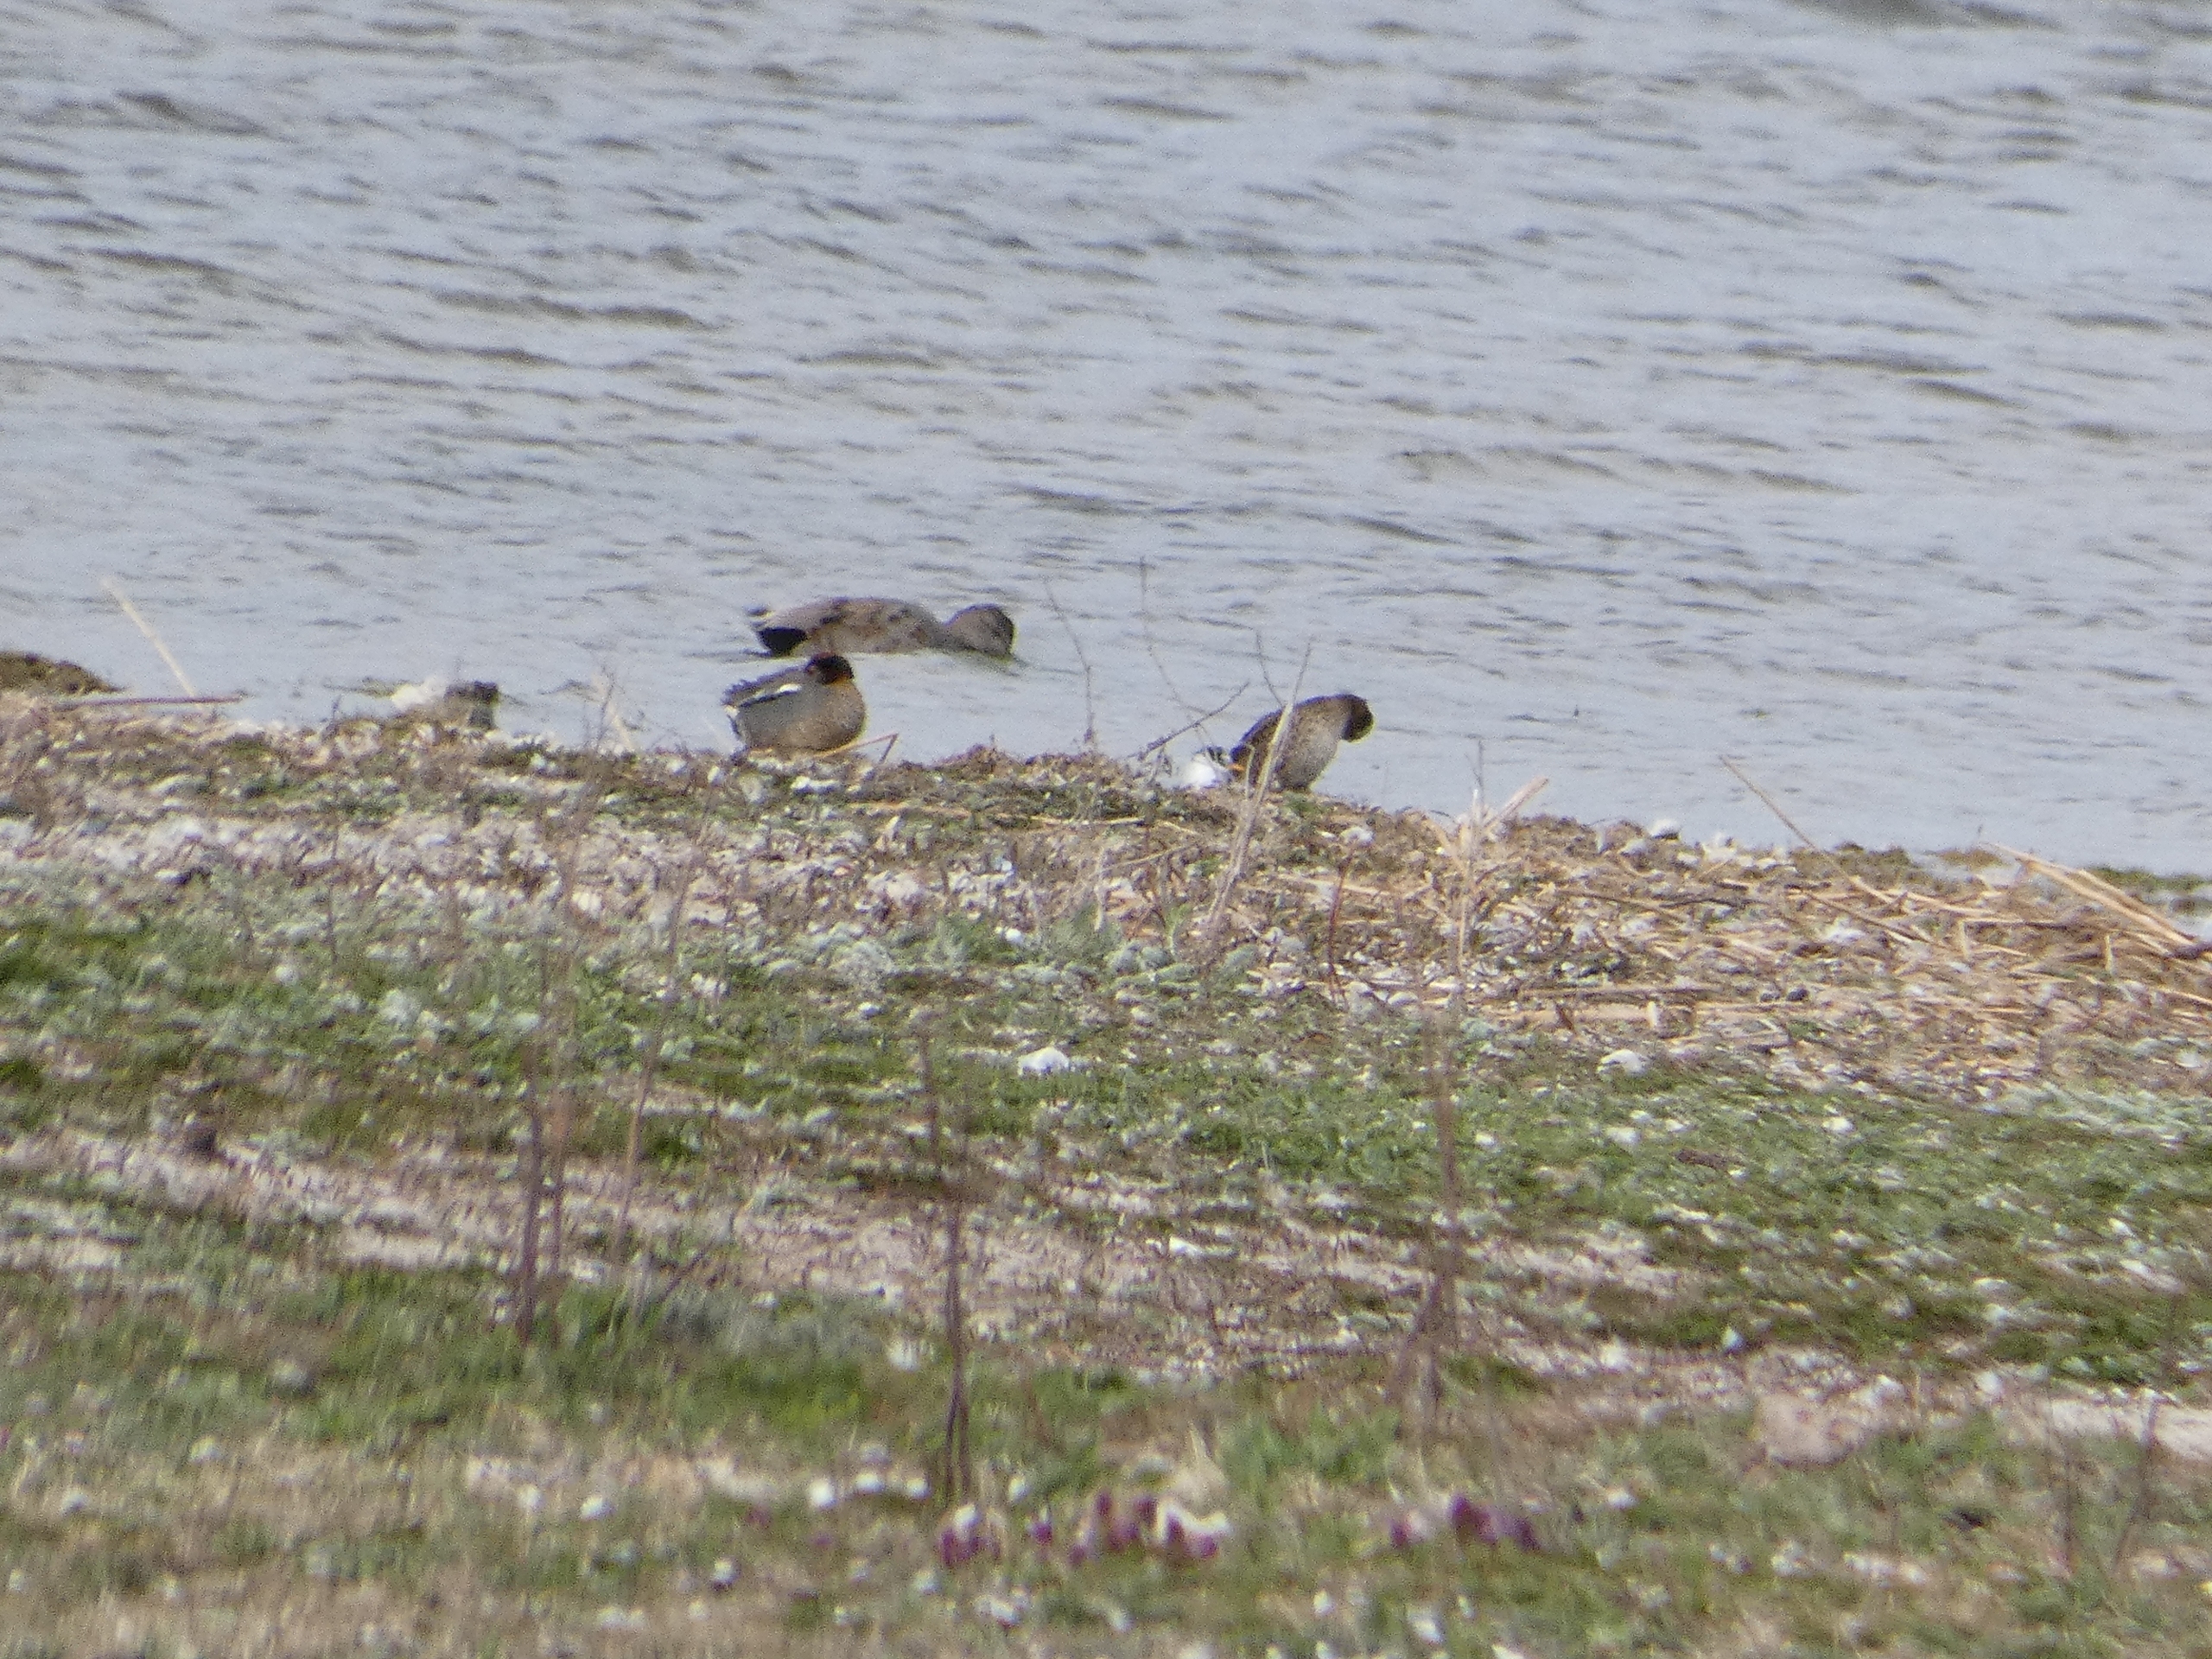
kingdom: Animalia
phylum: Chordata
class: Aves
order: Charadriiformes
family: Laridae
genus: Sternula
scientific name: Sternula albifrons
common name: Dværgterne
